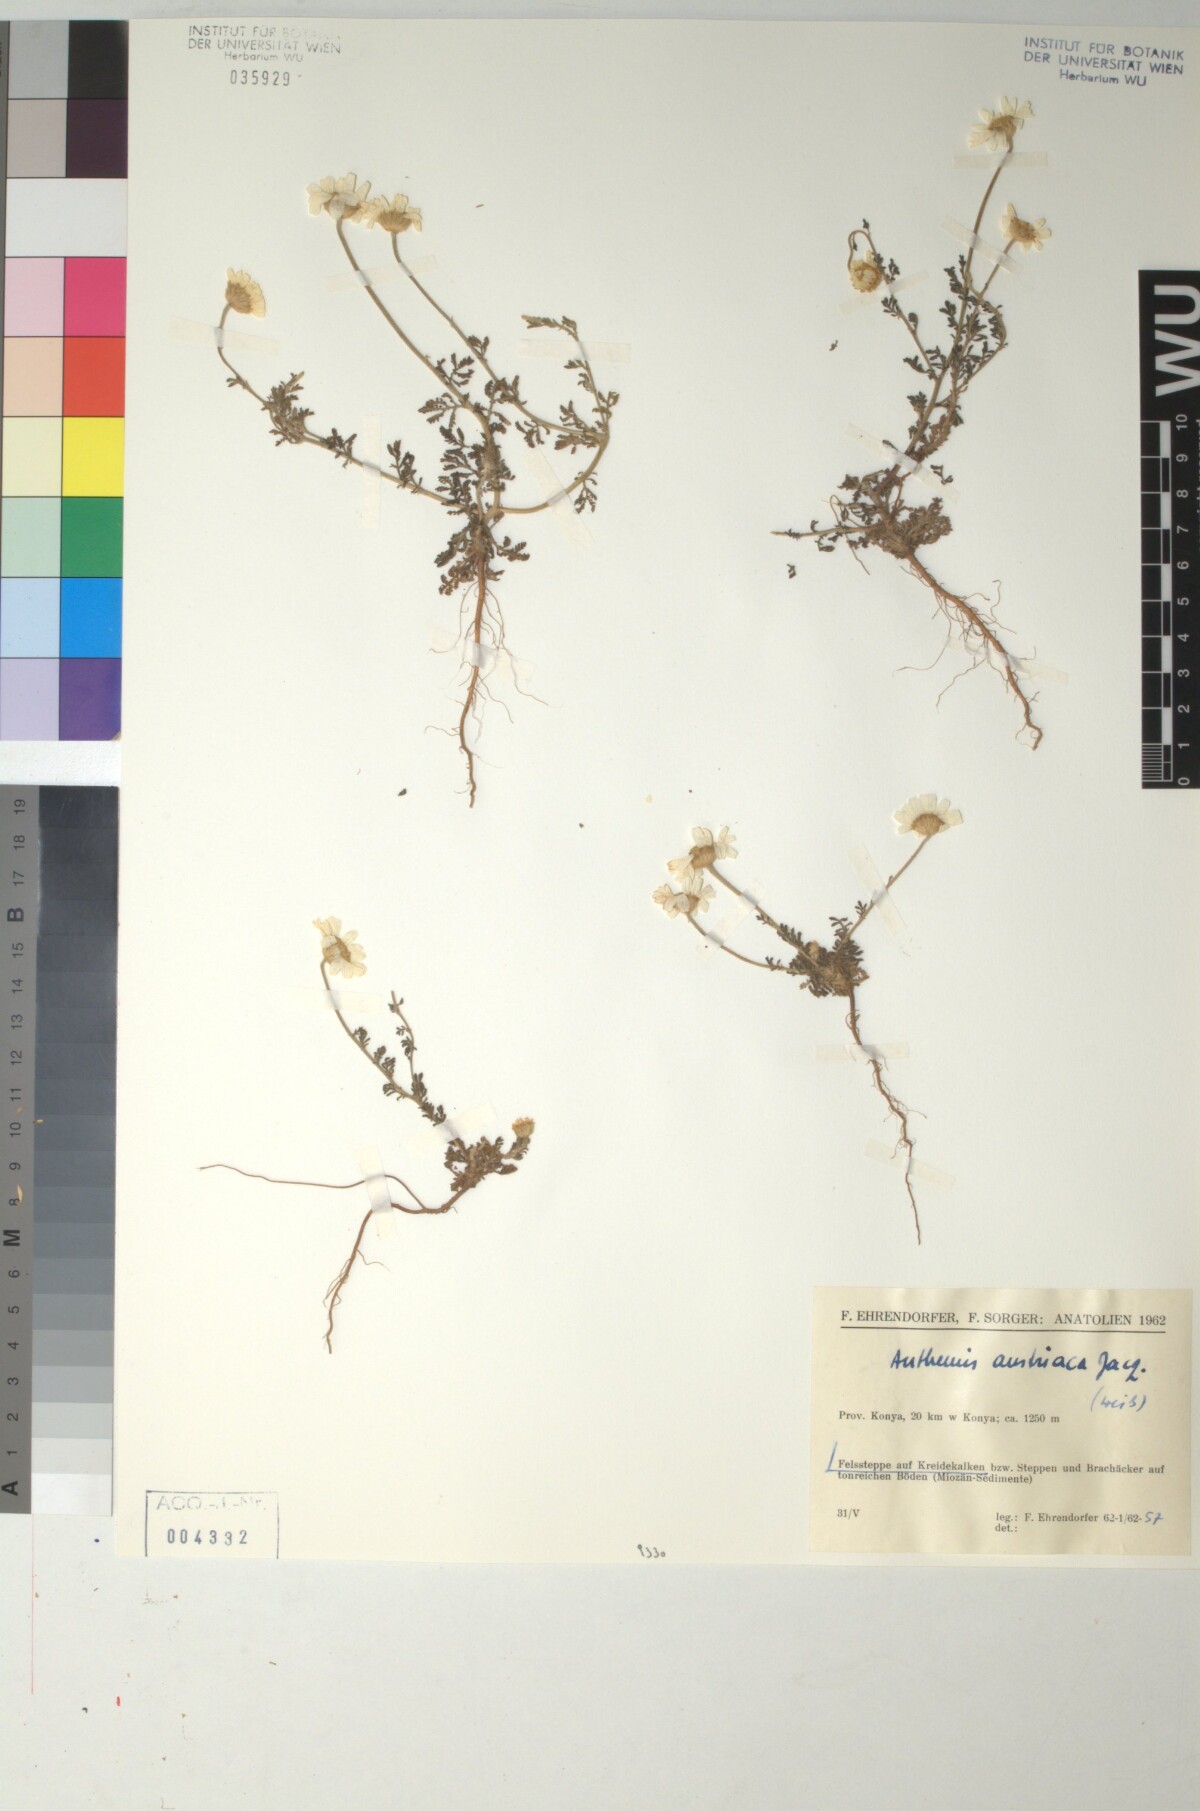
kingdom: Plantae
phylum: Tracheophyta
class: Magnoliopsida
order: Asterales
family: Asteraceae
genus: Cota
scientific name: Cota austriaca
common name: Austrian chamomile
